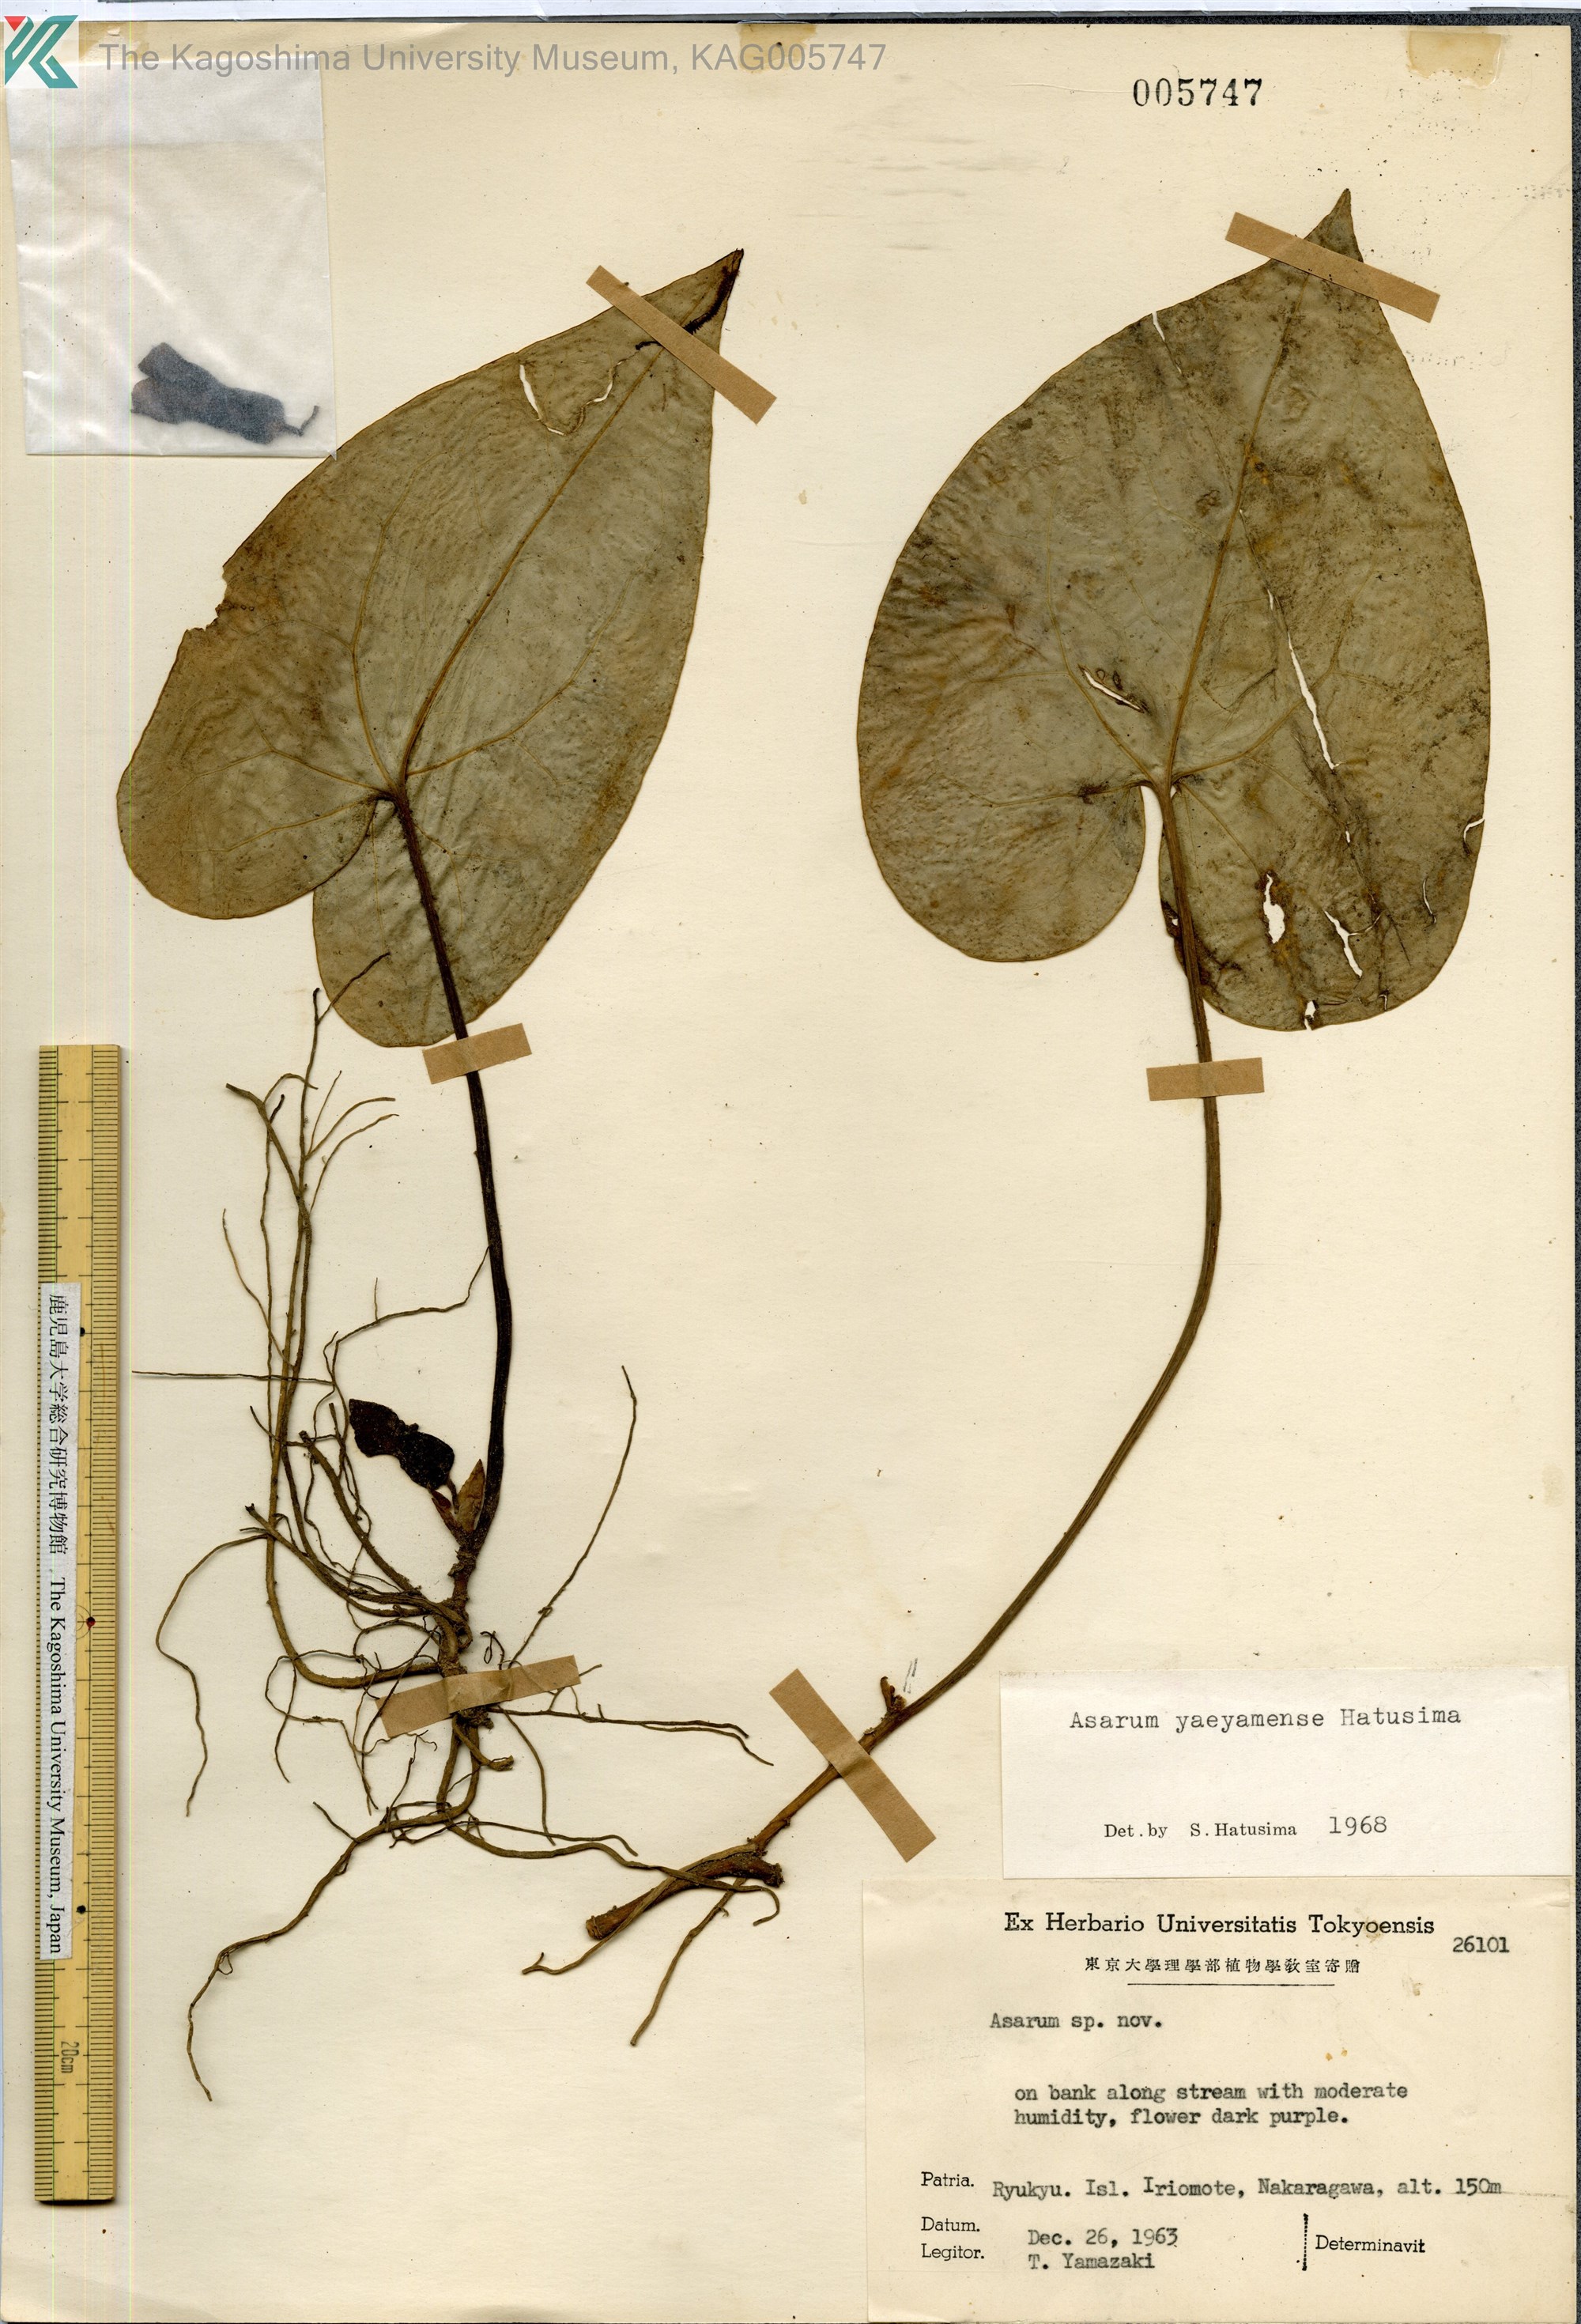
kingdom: Plantae
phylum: Tracheophyta
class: Magnoliopsida
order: Piperales
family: Aristolochiaceae
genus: Asarum
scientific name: Asarum yaeyamense
